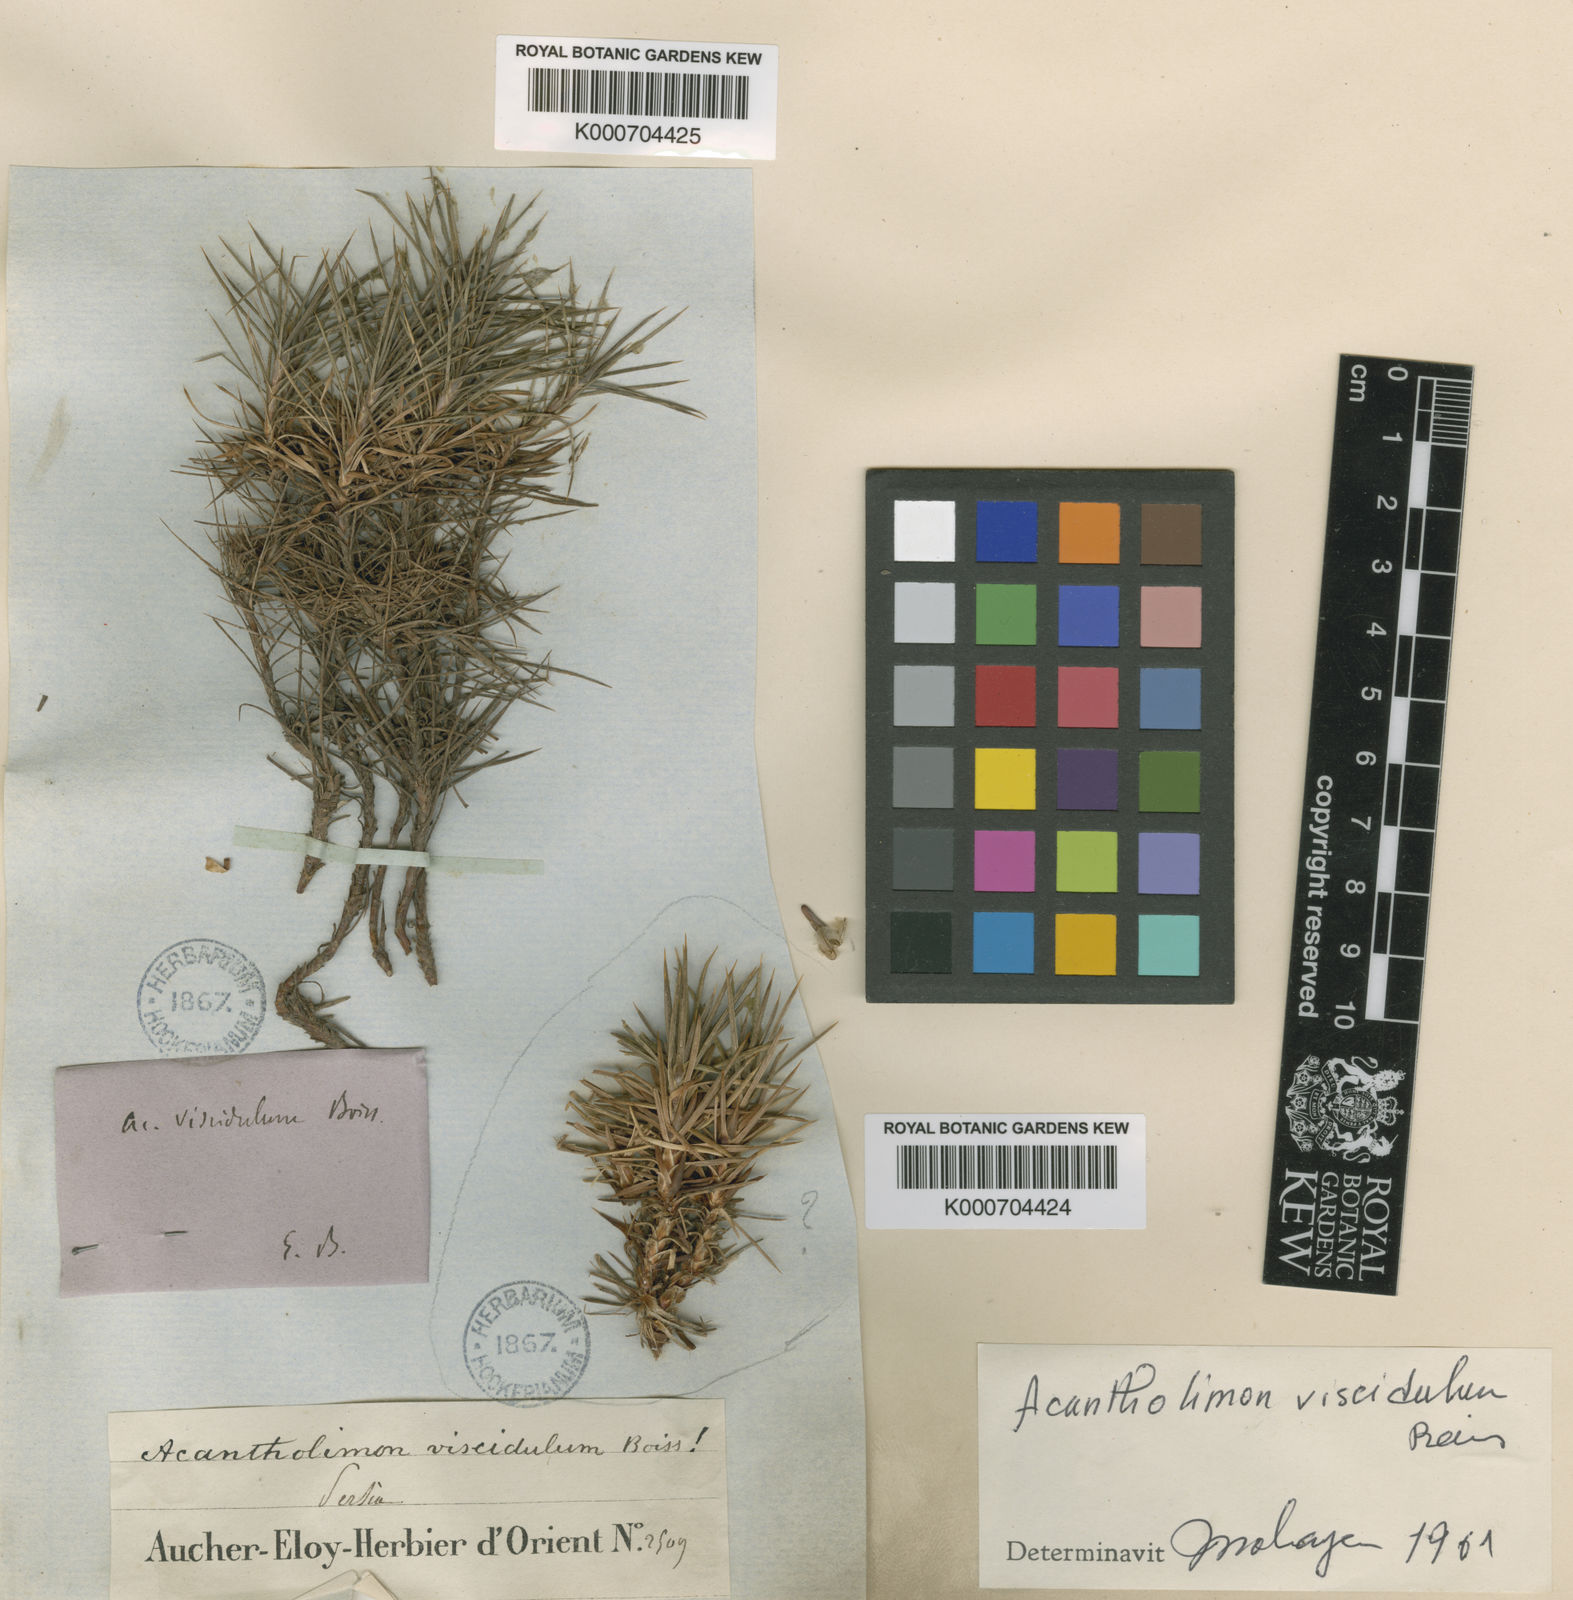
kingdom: Plantae
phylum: Tracheophyta
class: Magnoliopsida
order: Caryophyllales
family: Plumbaginaceae
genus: Acantholimon
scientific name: Acantholimon viscidulum
